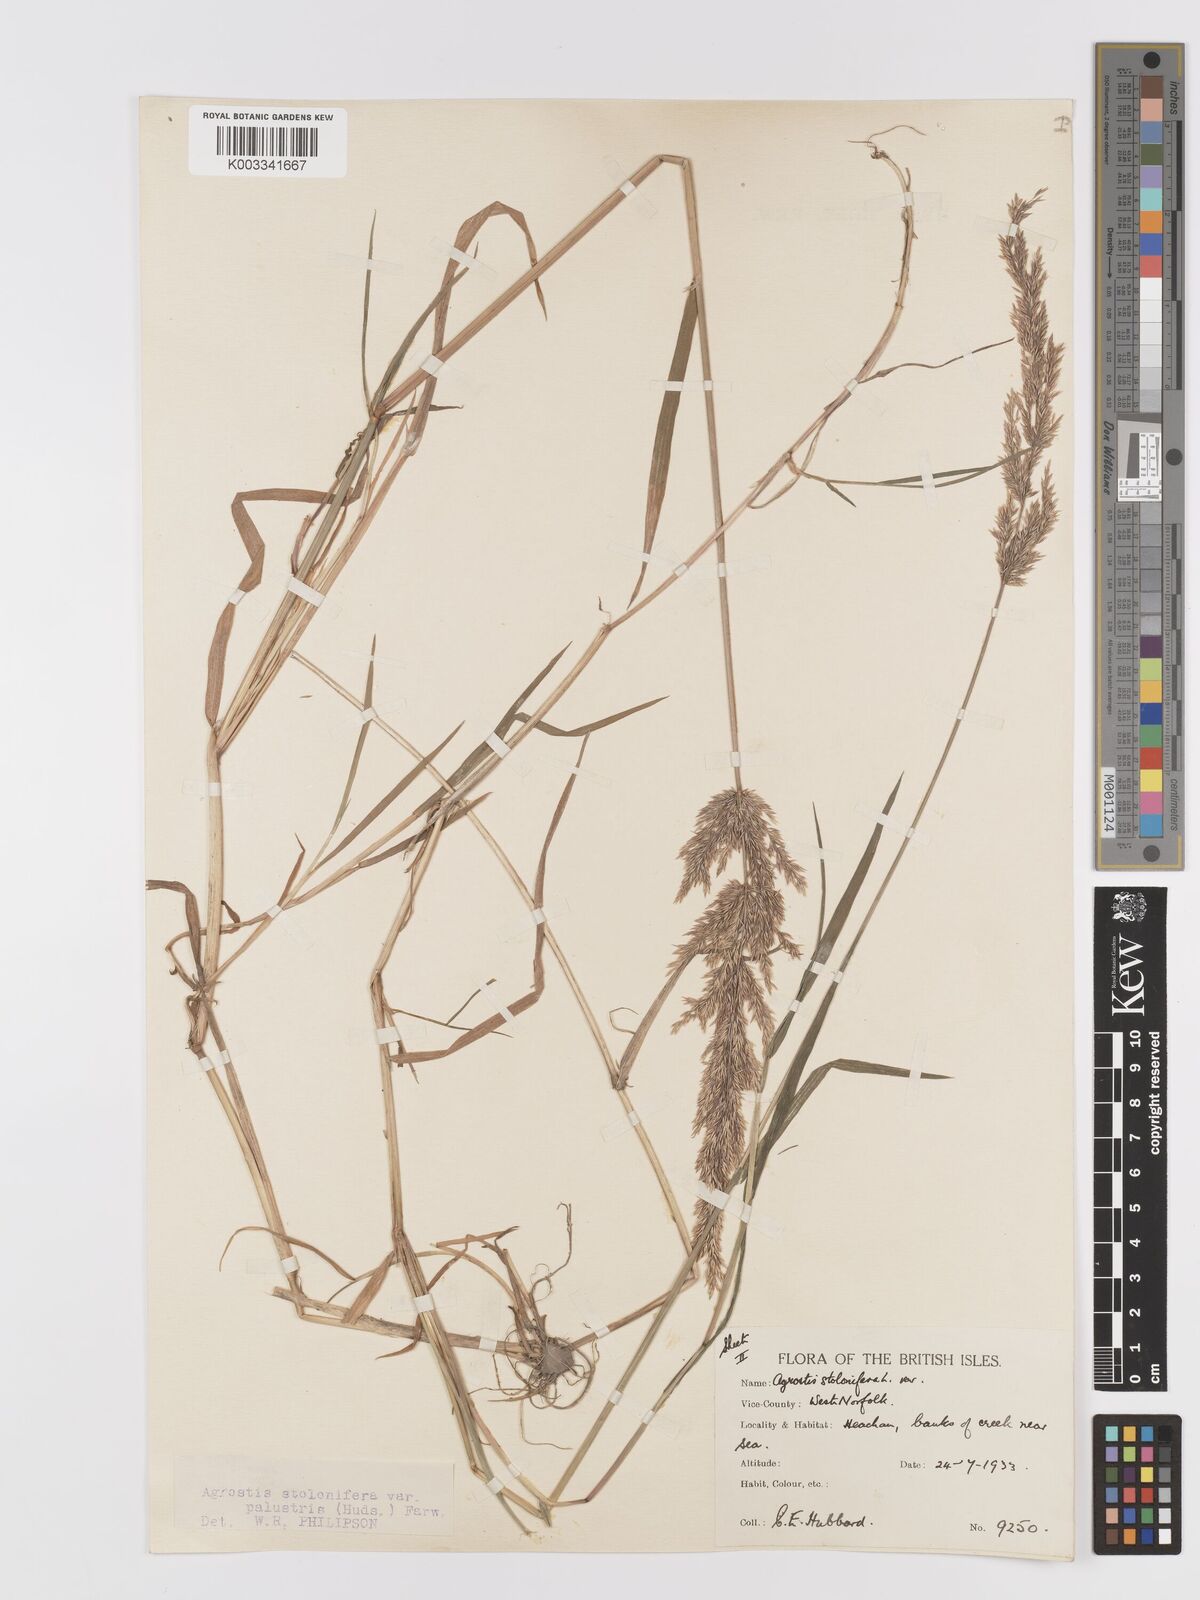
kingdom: Plantae
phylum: Tracheophyta
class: Liliopsida
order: Poales
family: Poaceae
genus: Agrostis
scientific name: Agrostis stolonifera
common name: Creeping bentgrass
